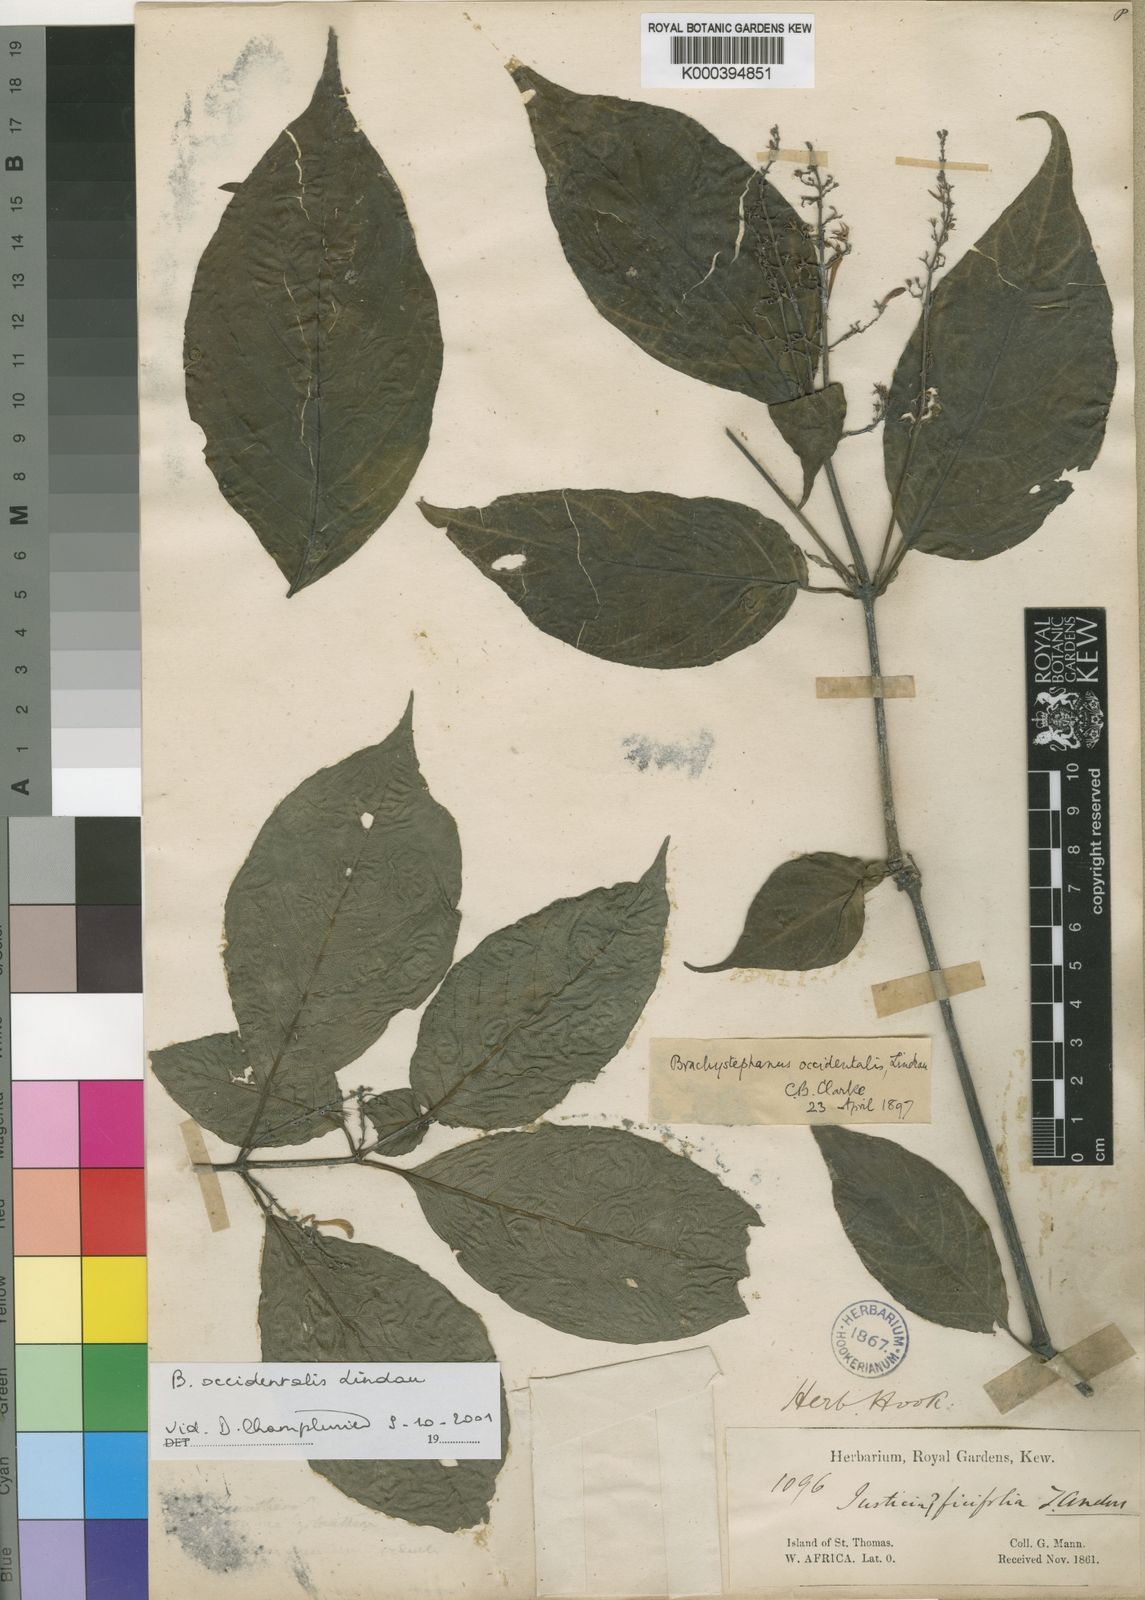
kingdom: Plantae
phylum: Tracheophyta
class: Magnoliopsida
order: Lamiales
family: Acanthaceae
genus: Brachystephanus
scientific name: Brachystephanus occidentalis
